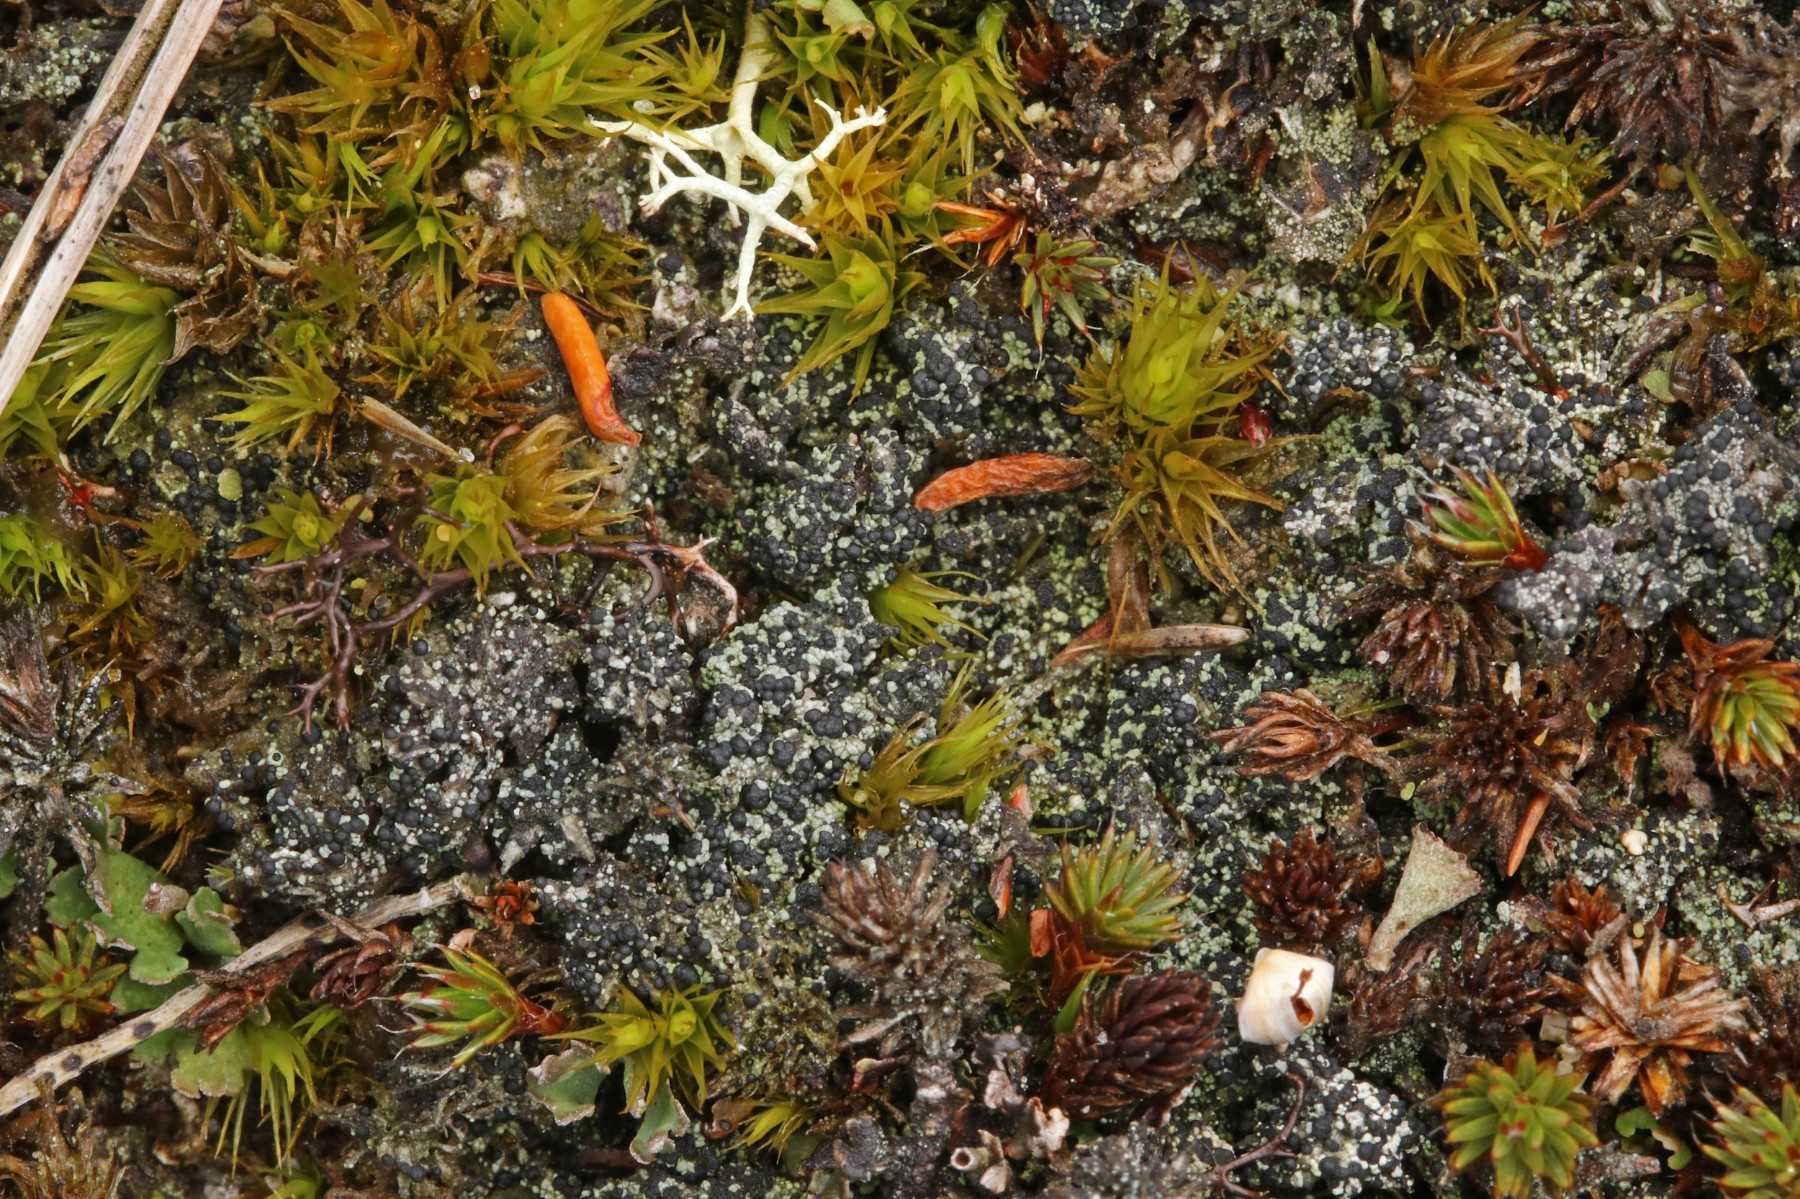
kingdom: Fungi
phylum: Ascomycota
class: Lecanoromycetes
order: Lecanorales
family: Byssolomataceae
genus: Micarea
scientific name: Micarea lignaria
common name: tørve-knaplav
